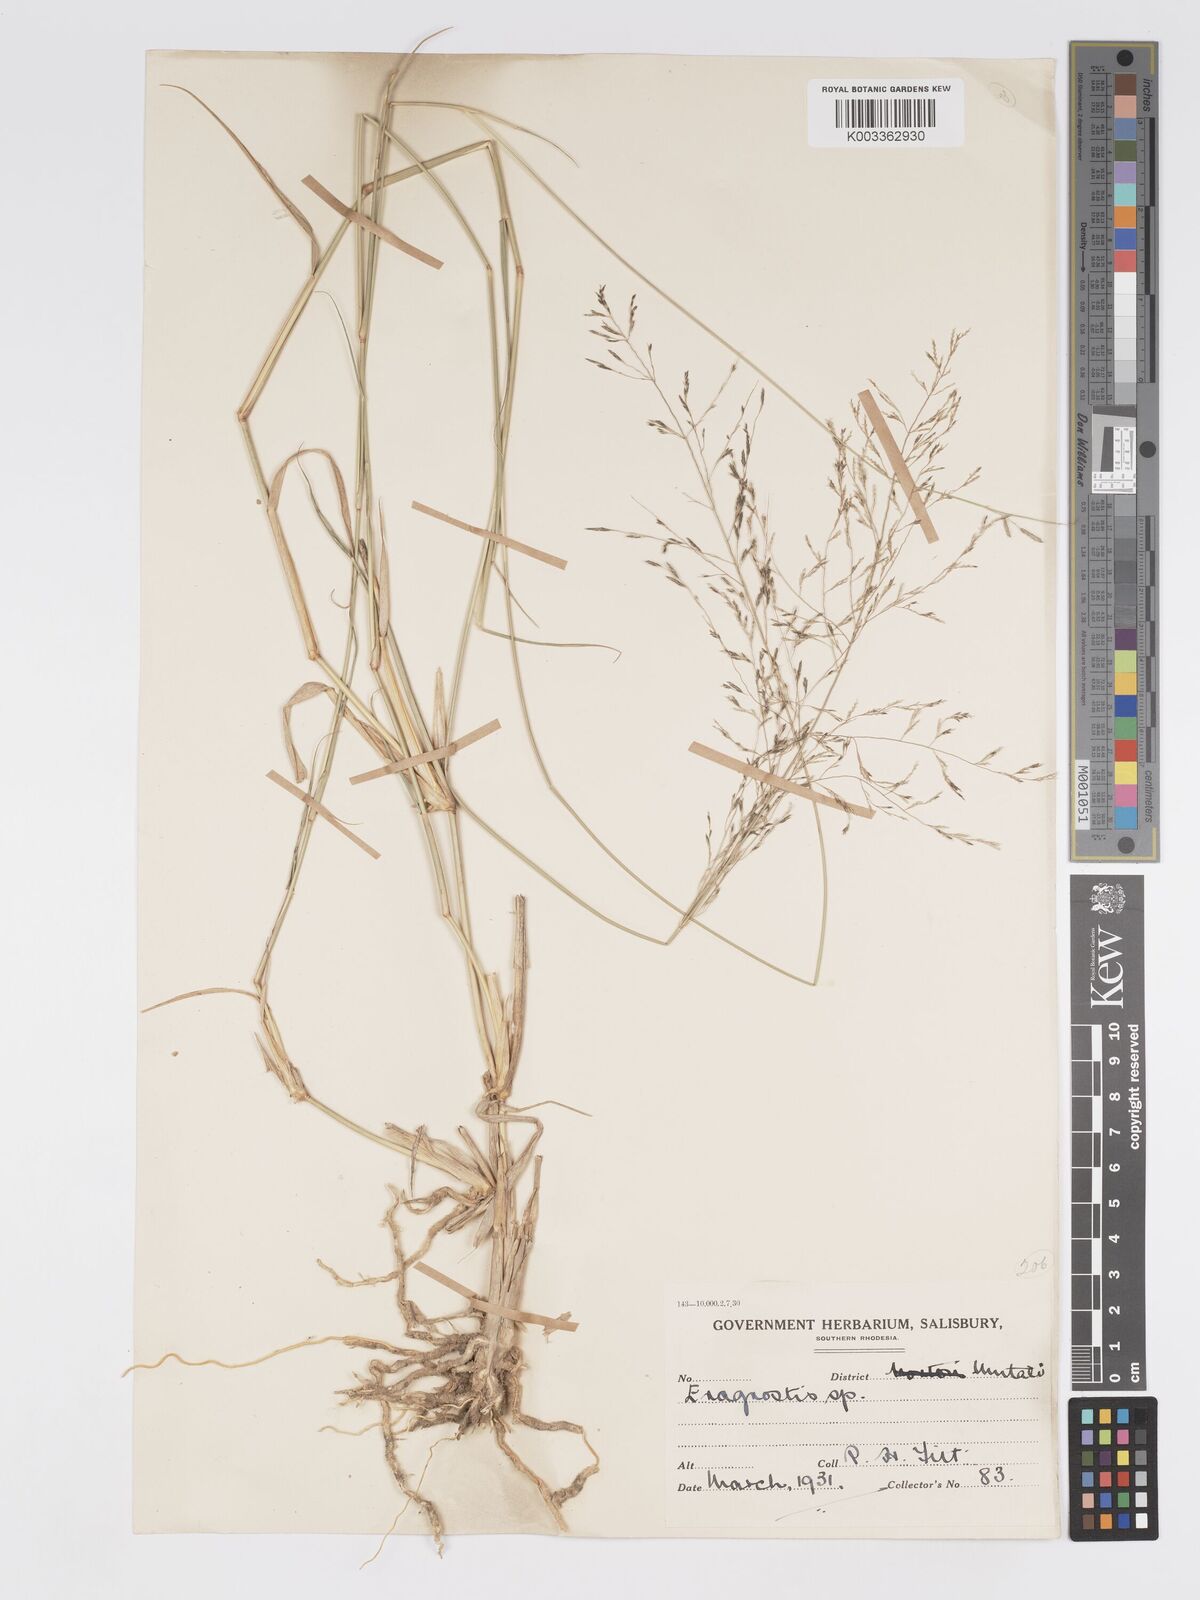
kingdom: Plantae
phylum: Tracheophyta
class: Liliopsida
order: Poales
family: Poaceae
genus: Eragrostis
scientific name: Eragrostis cylindriflora
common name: Cylinderflower lovegrass
